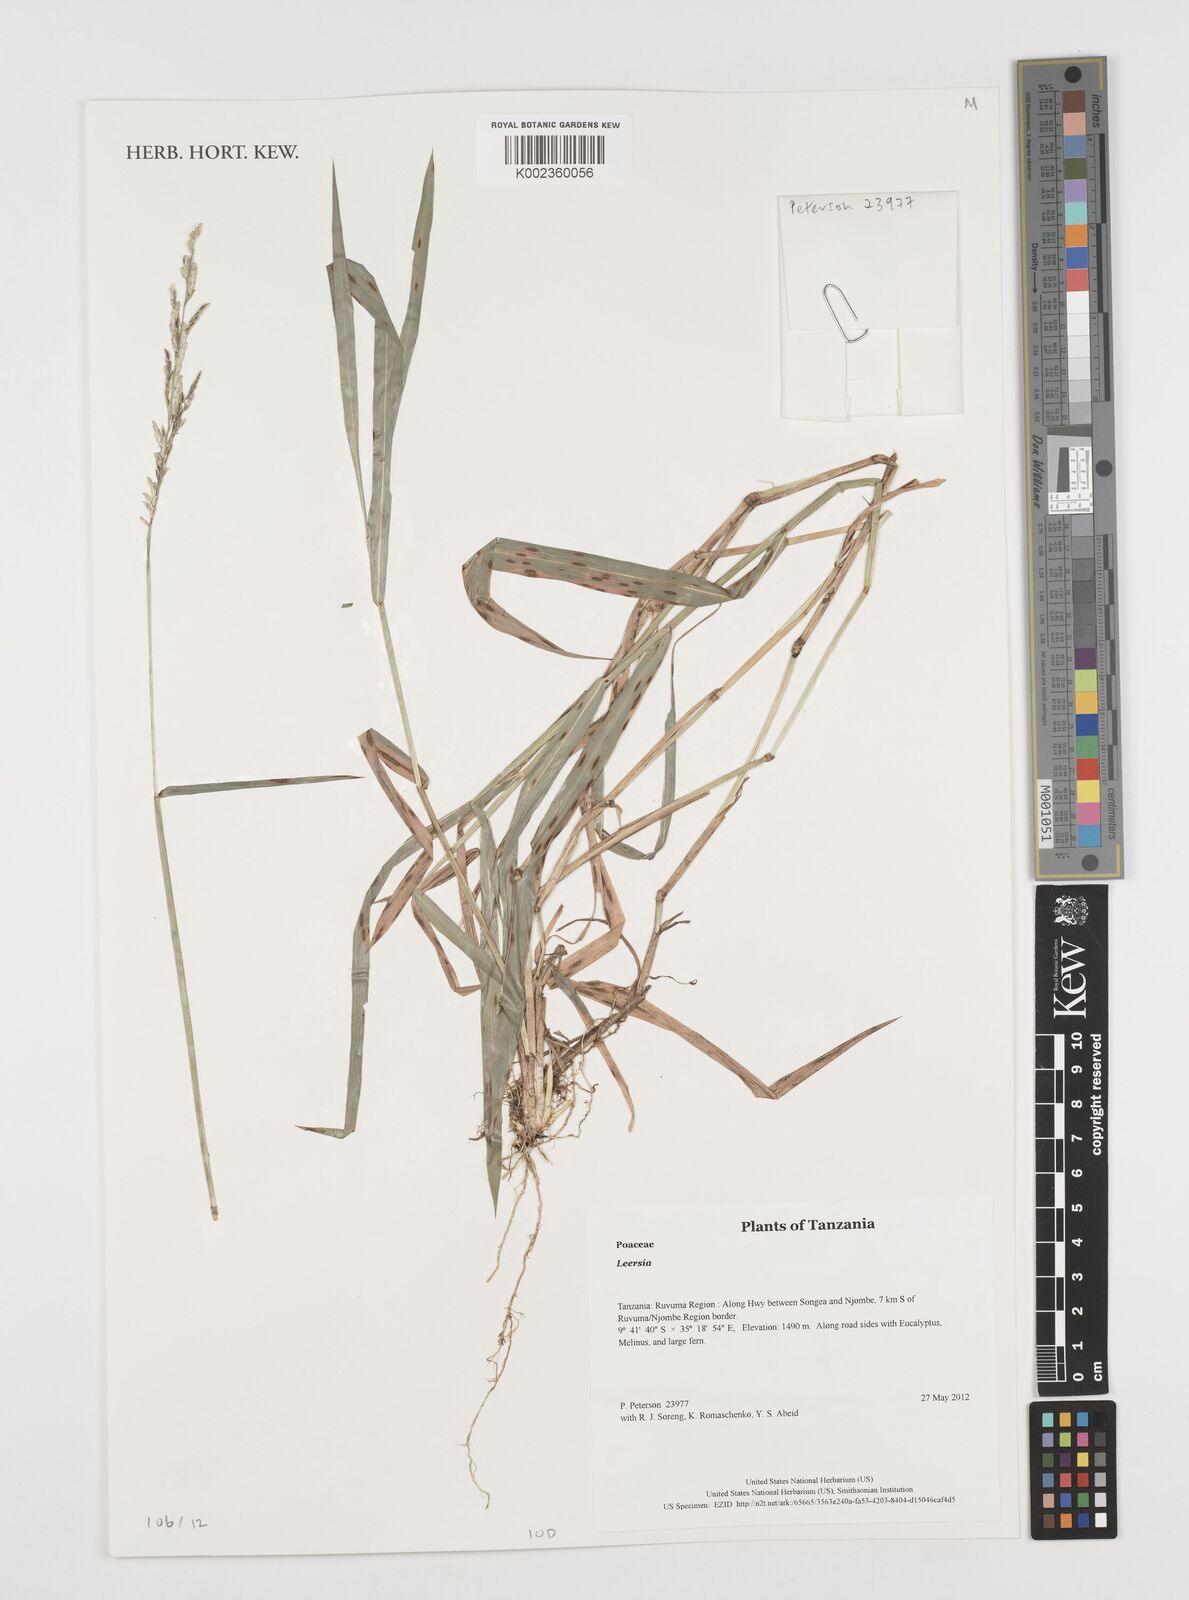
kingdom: Plantae
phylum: Tracheophyta
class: Liliopsida
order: Poales
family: Poaceae
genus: Leersia
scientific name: Leersia
